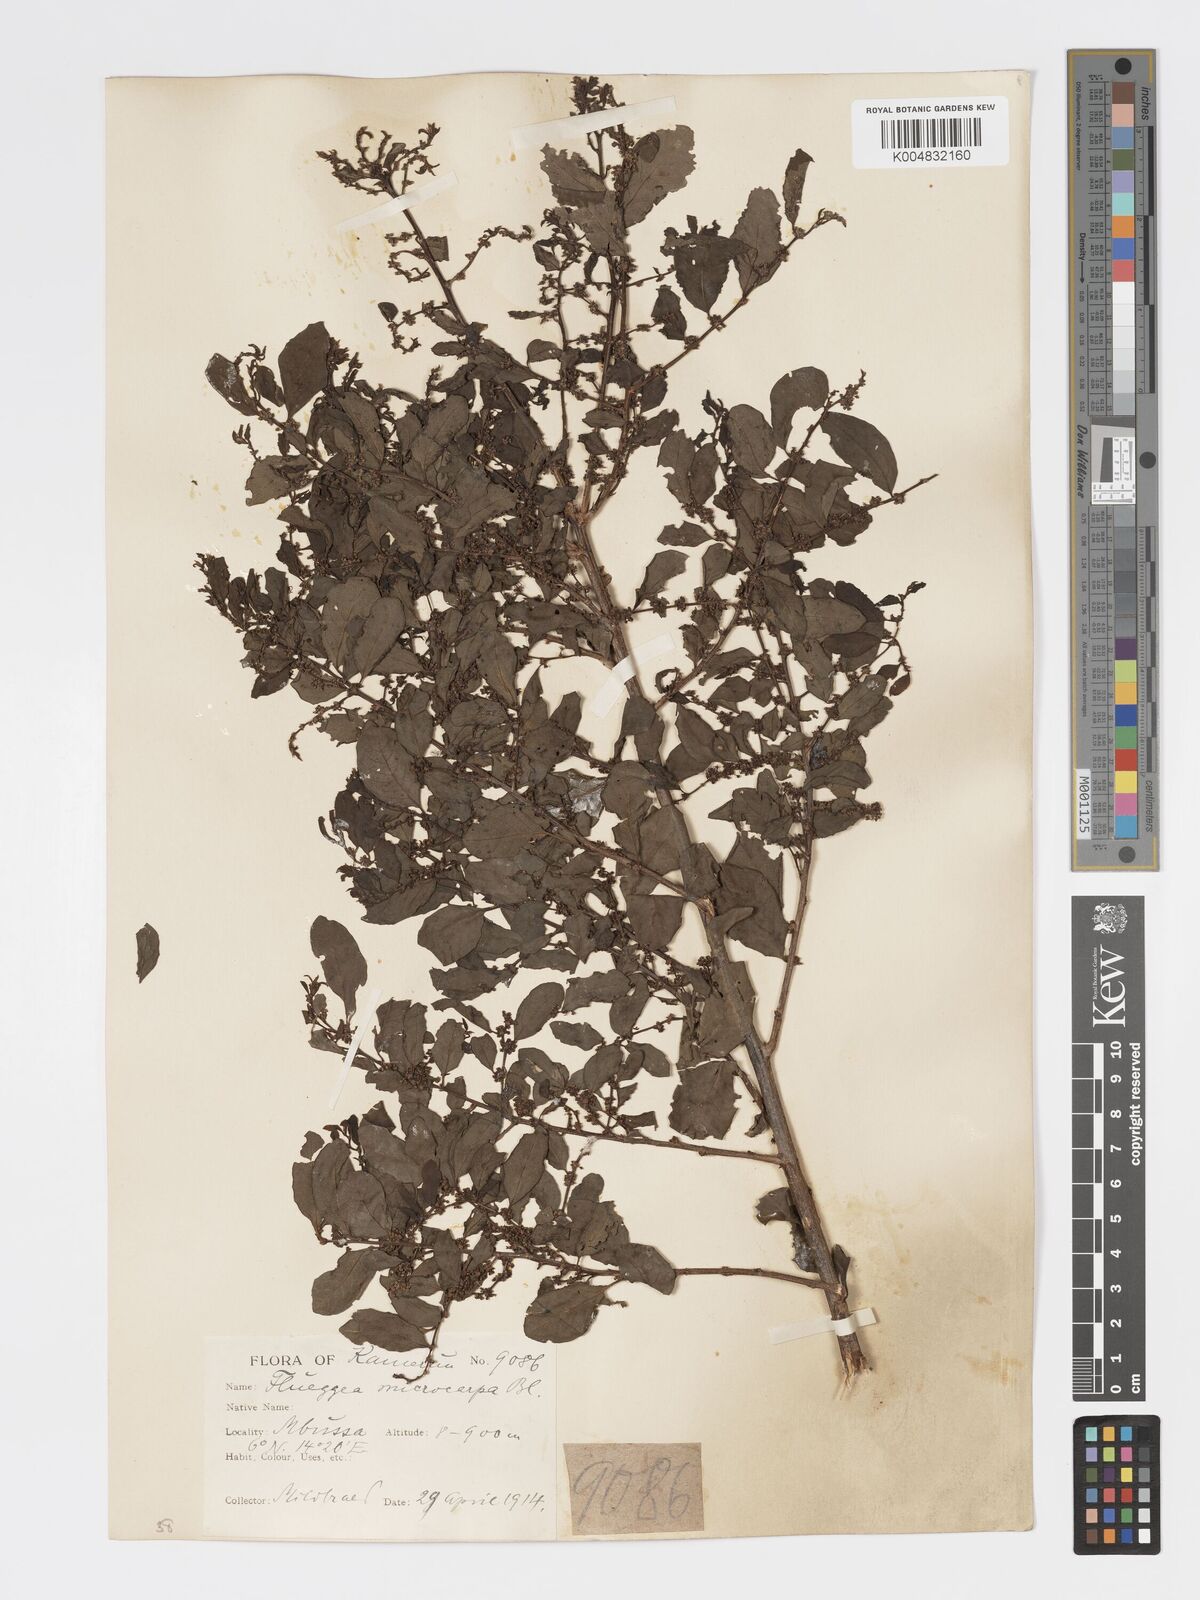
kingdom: Plantae
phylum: Tracheophyta
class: Magnoliopsida
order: Malpighiales
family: Phyllanthaceae
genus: Flueggea
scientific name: Flueggea virosa
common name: Common bushweed
